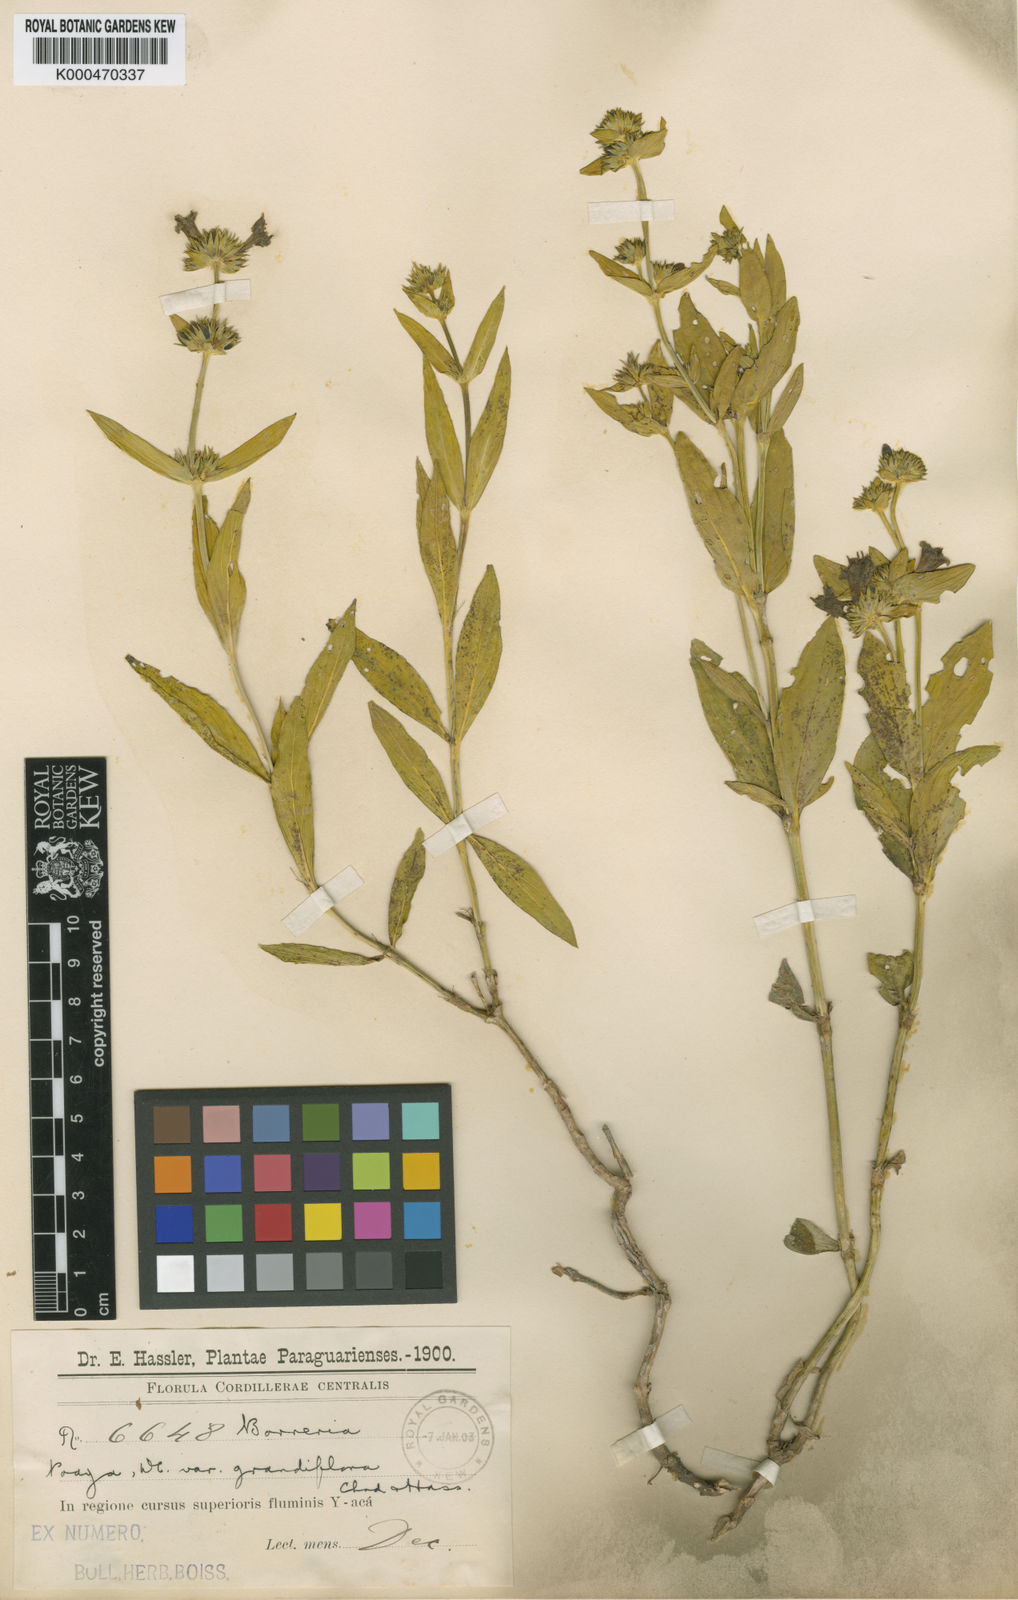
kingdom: Plantae
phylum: Tracheophyta
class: Magnoliopsida
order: Gentianales
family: Rubiaceae
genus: Spermacoce
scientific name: Spermacoce poaya
